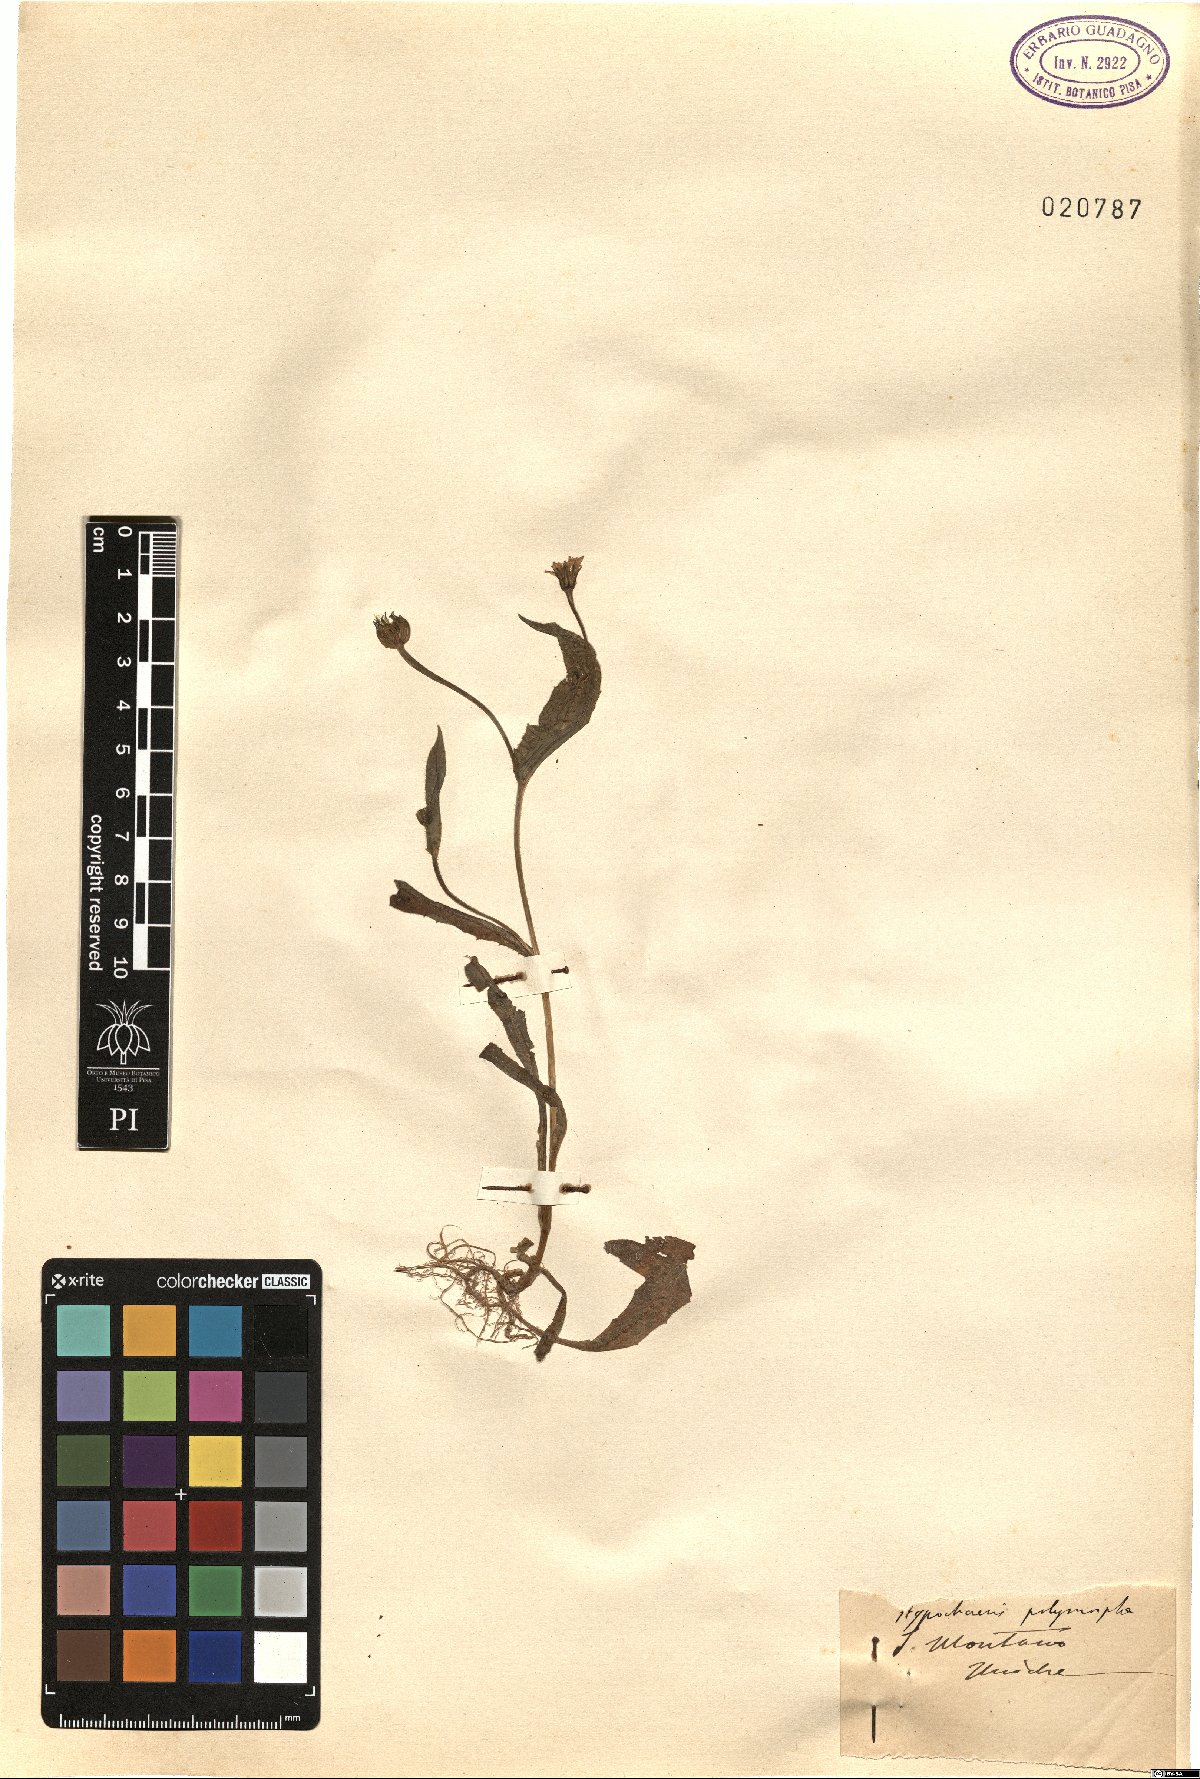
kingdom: Plantae
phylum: Tracheophyta
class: Magnoliopsida
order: Asterales
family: Asteraceae
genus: Hedypnois
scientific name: Hedypnois rhagadioloides
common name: Cretan weed
